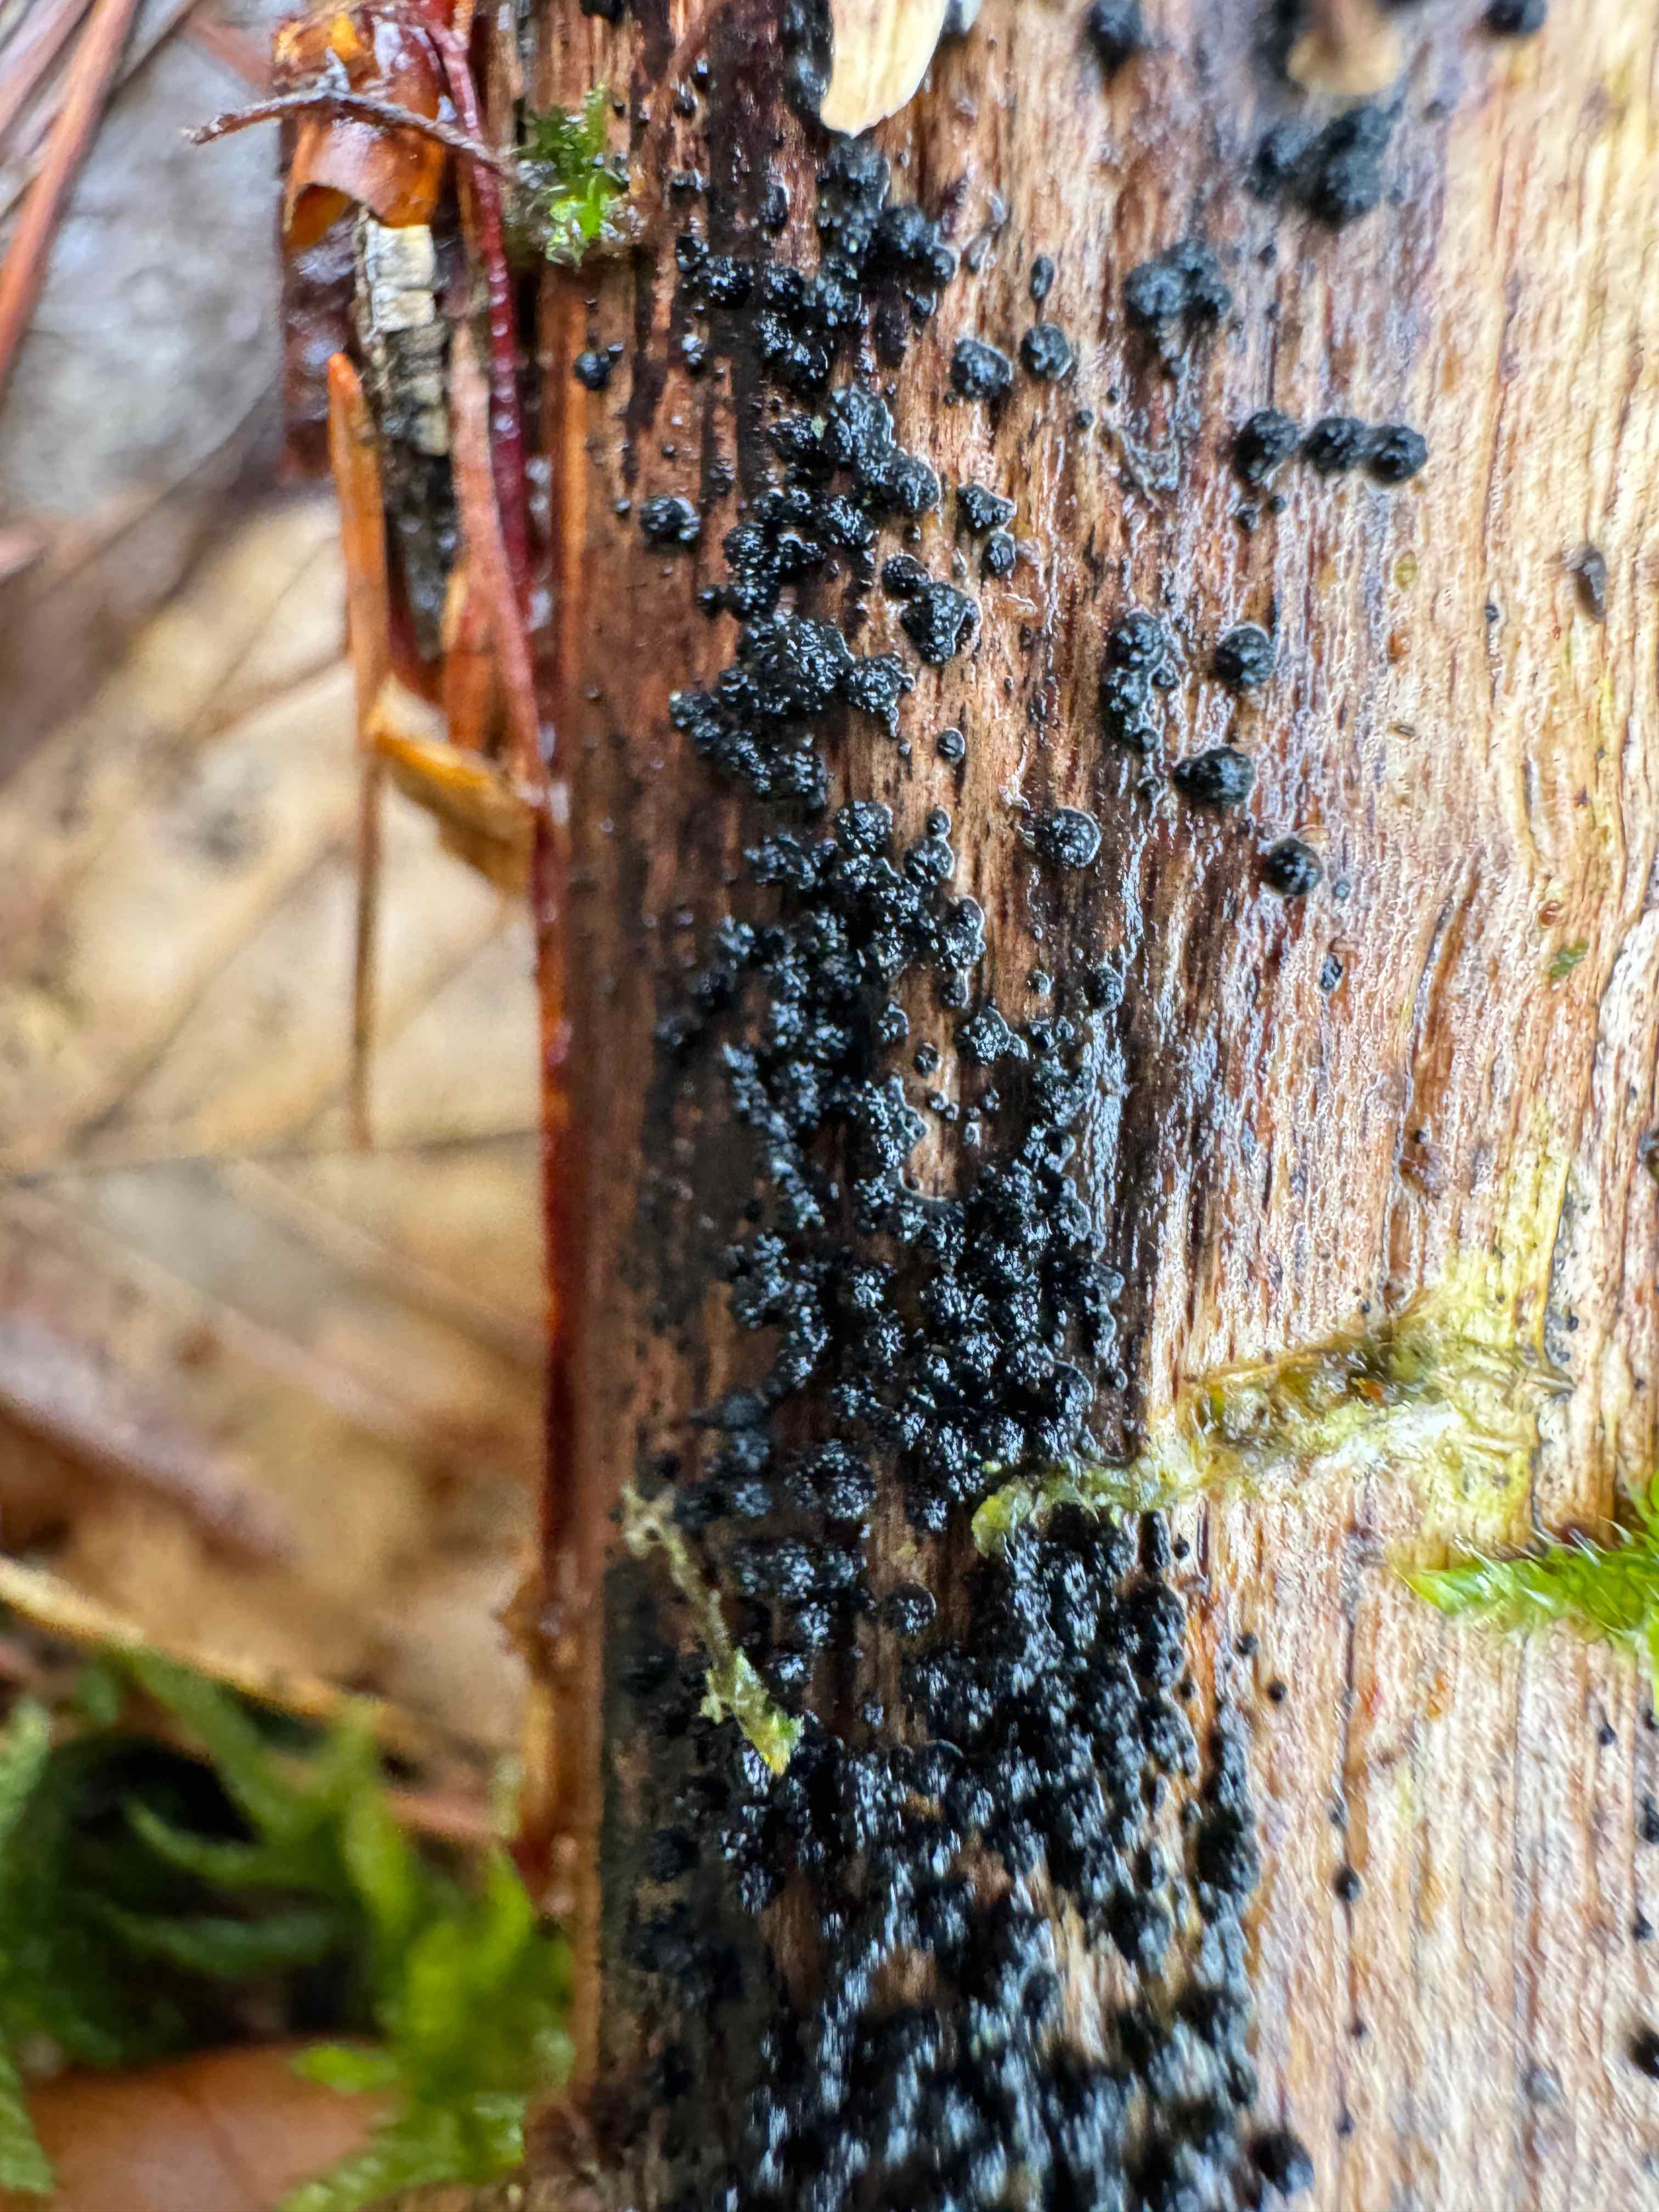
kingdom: Fungi
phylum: Ascomycota
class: Sordariomycetes
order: Coronophorales
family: Bertiaceae
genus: Bertia
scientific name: Bertia moriformis
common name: almindelig morbærkerne
